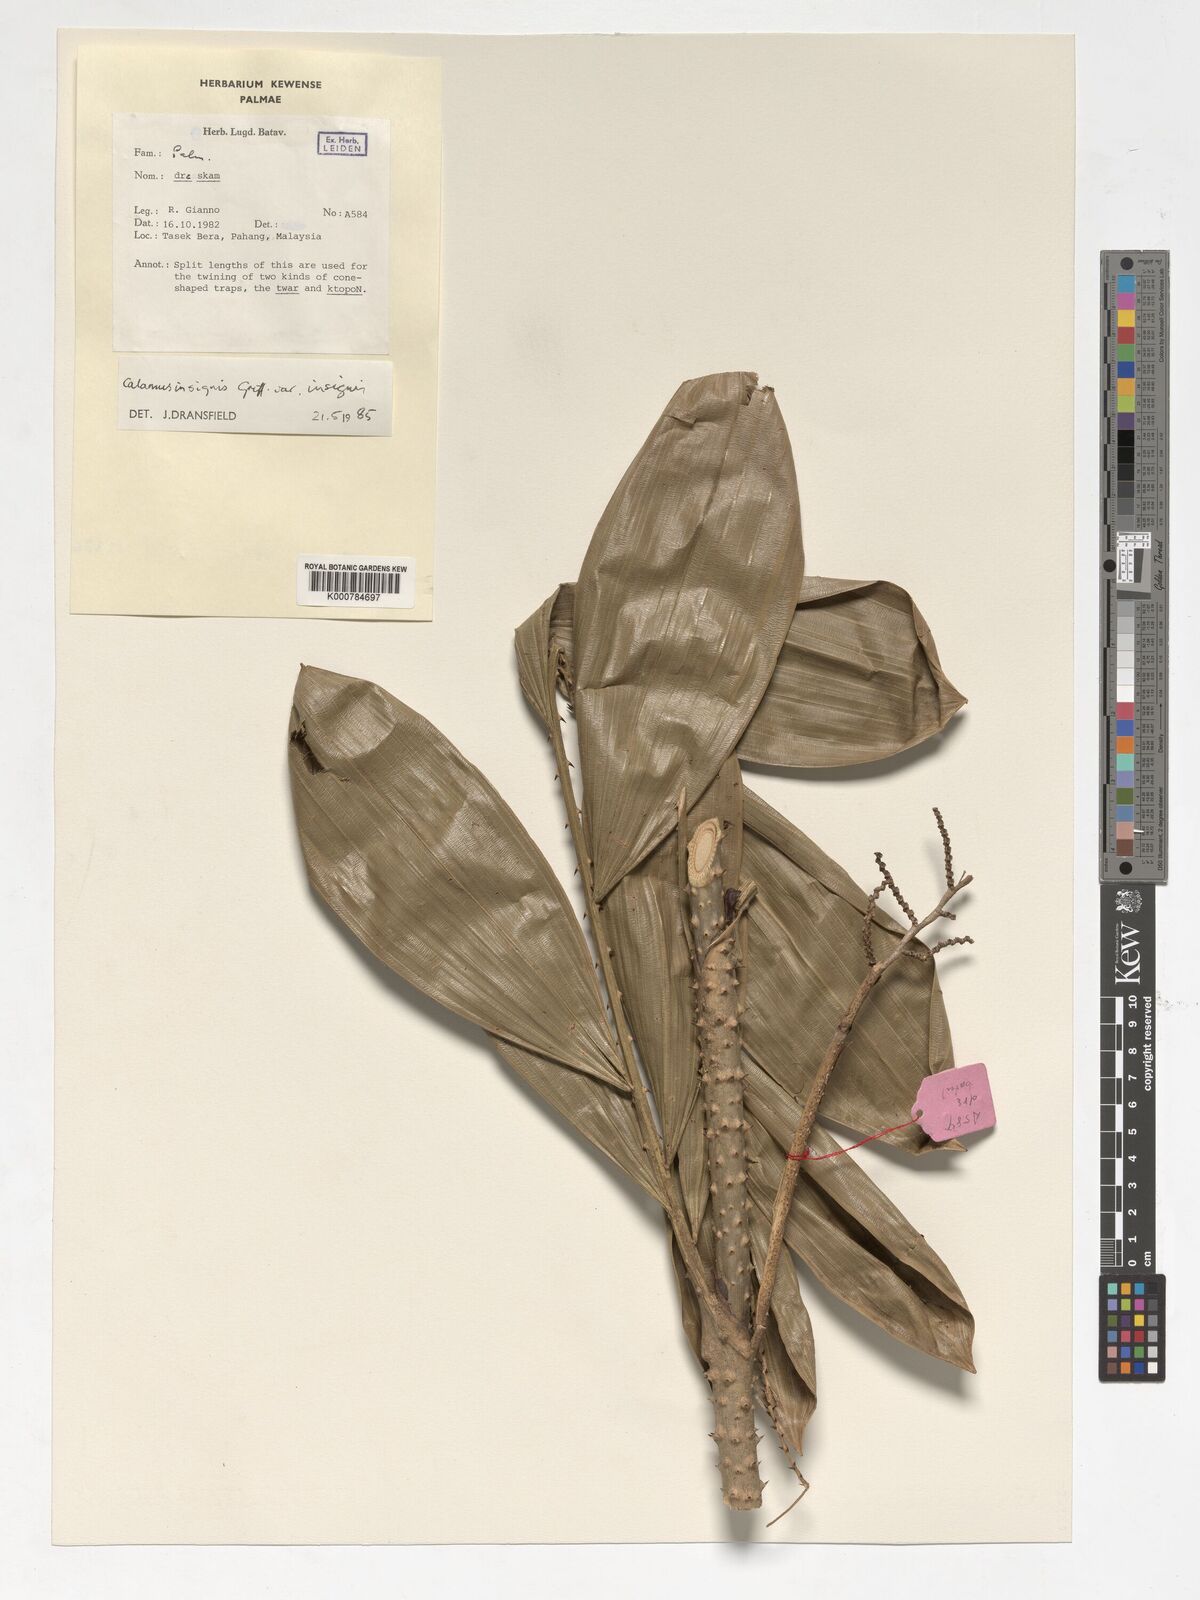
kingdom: Plantae
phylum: Tracheophyta
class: Liliopsida
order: Arecales
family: Arecaceae
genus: Calamus
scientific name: Calamus insignis
